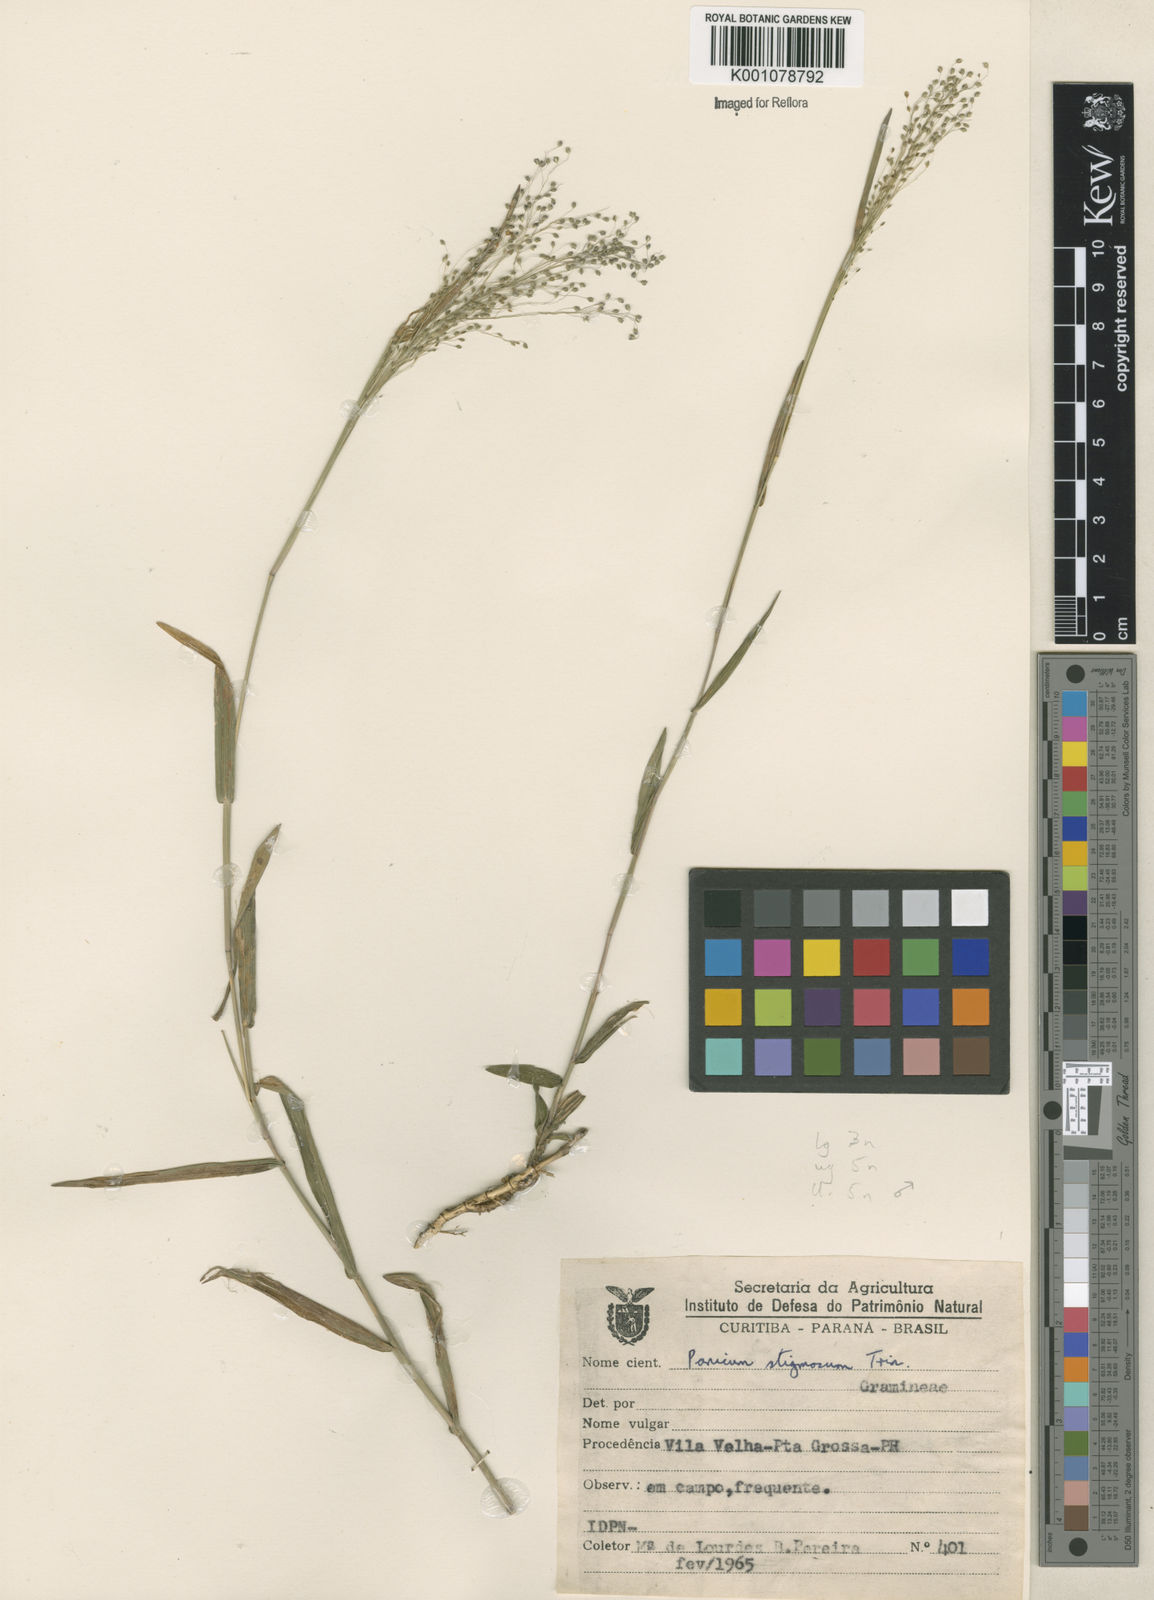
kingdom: Plantae
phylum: Tracheophyta
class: Liliopsida
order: Poales
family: Poaceae
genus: Trichanthecium
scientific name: Trichanthecium pseudisachne
